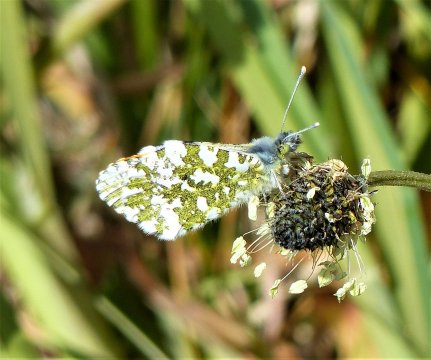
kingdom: Animalia
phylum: Arthropoda
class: Insecta
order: Lepidoptera
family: Pieridae
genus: Anthocharis
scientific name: Anthocharis cardamines
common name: Orange Tip
